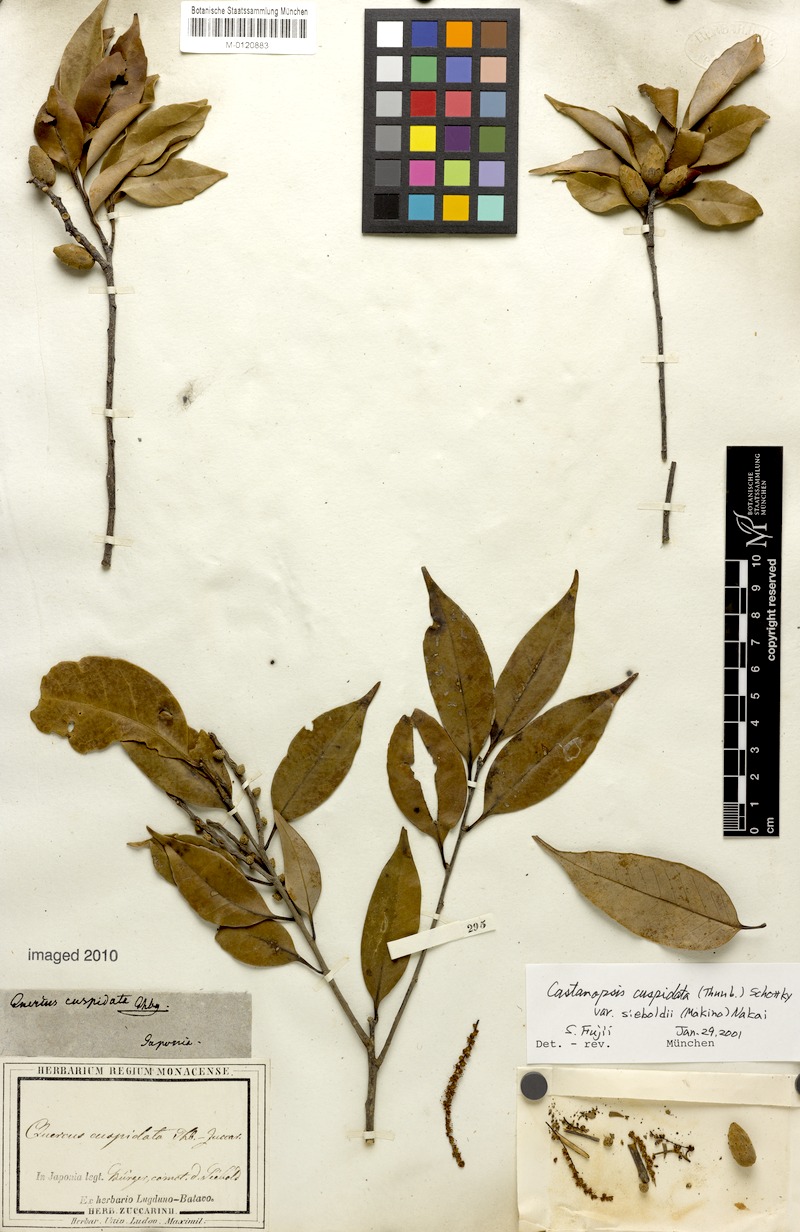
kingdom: Plantae
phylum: Tracheophyta
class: Magnoliopsida
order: Fagales
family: Fagaceae
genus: Castanopsis
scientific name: Castanopsis sieboldii
